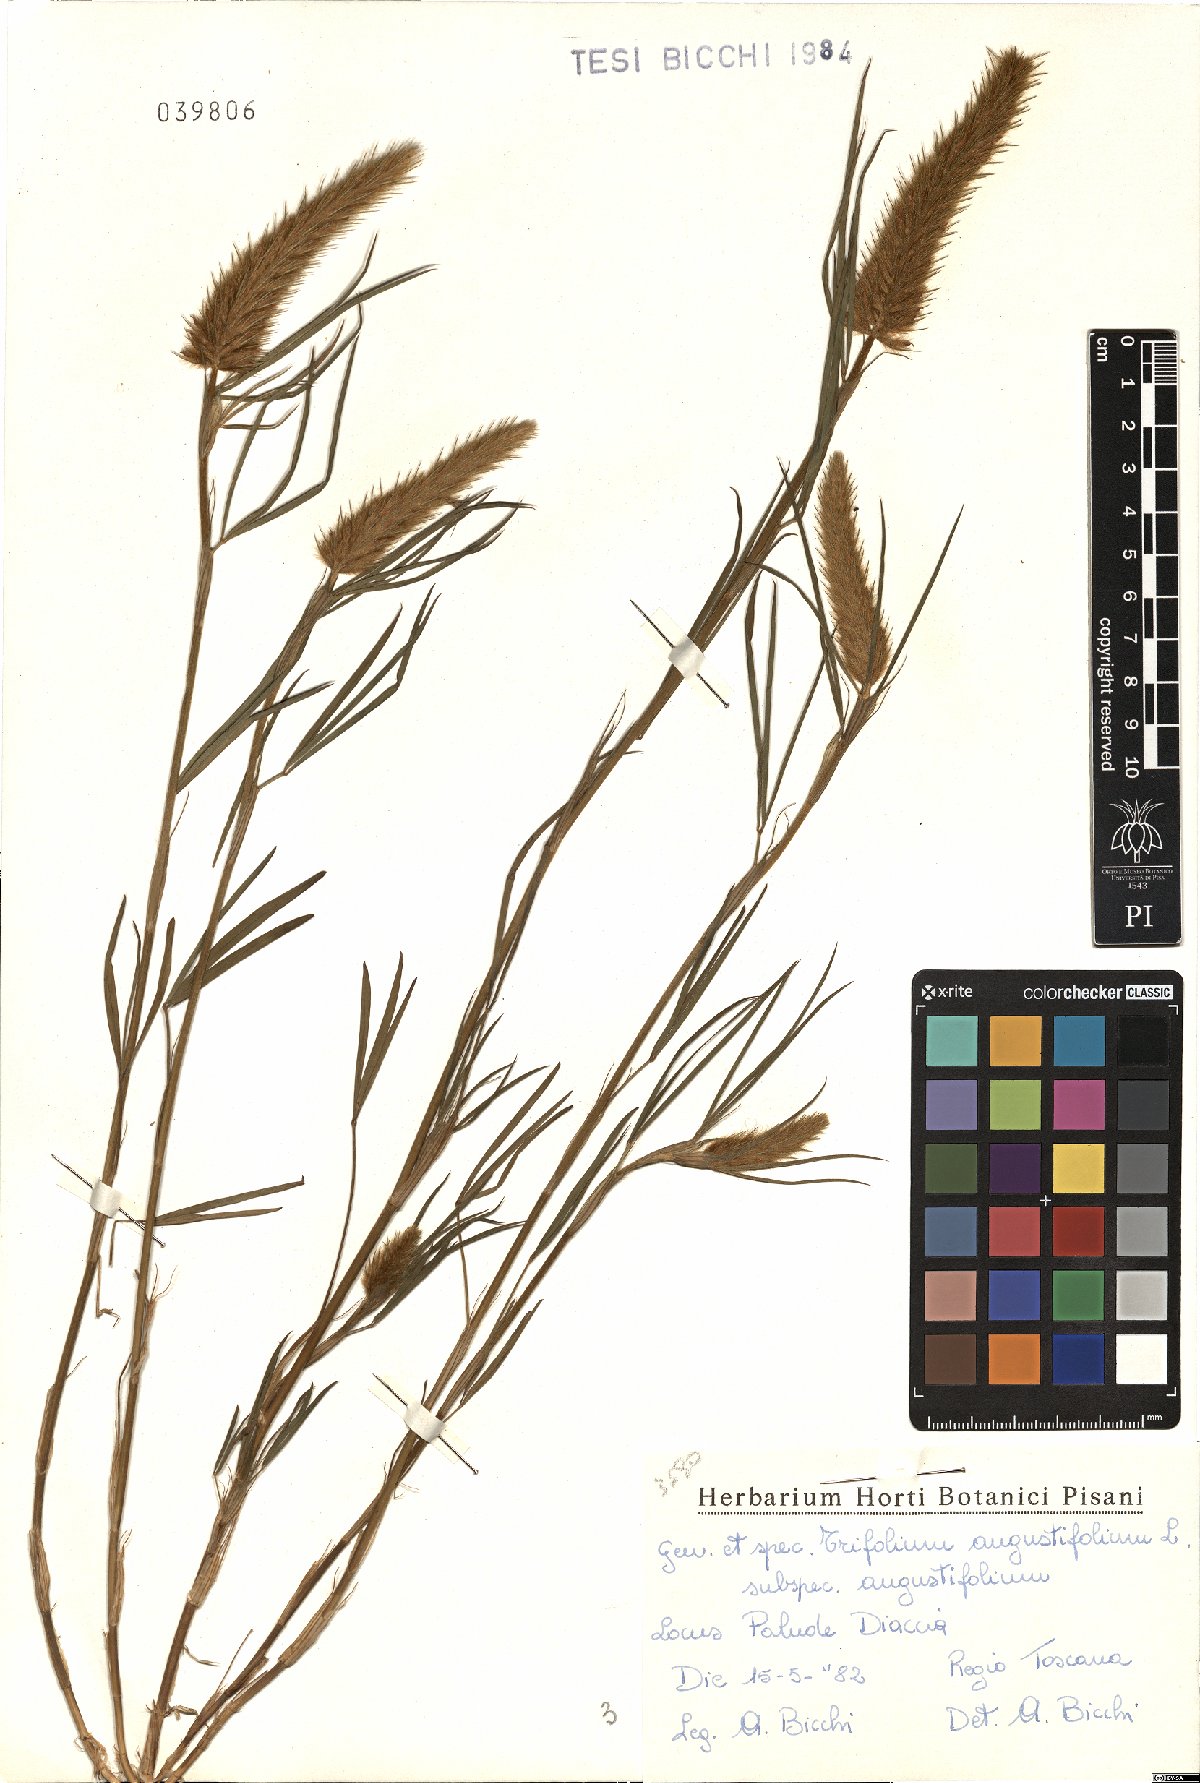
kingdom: Plantae
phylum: Tracheophyta
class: Magnoliopsida
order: Fabales
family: Fabaceae
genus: Trifolium
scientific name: Trifolium angustifolium
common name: Narrow clover
